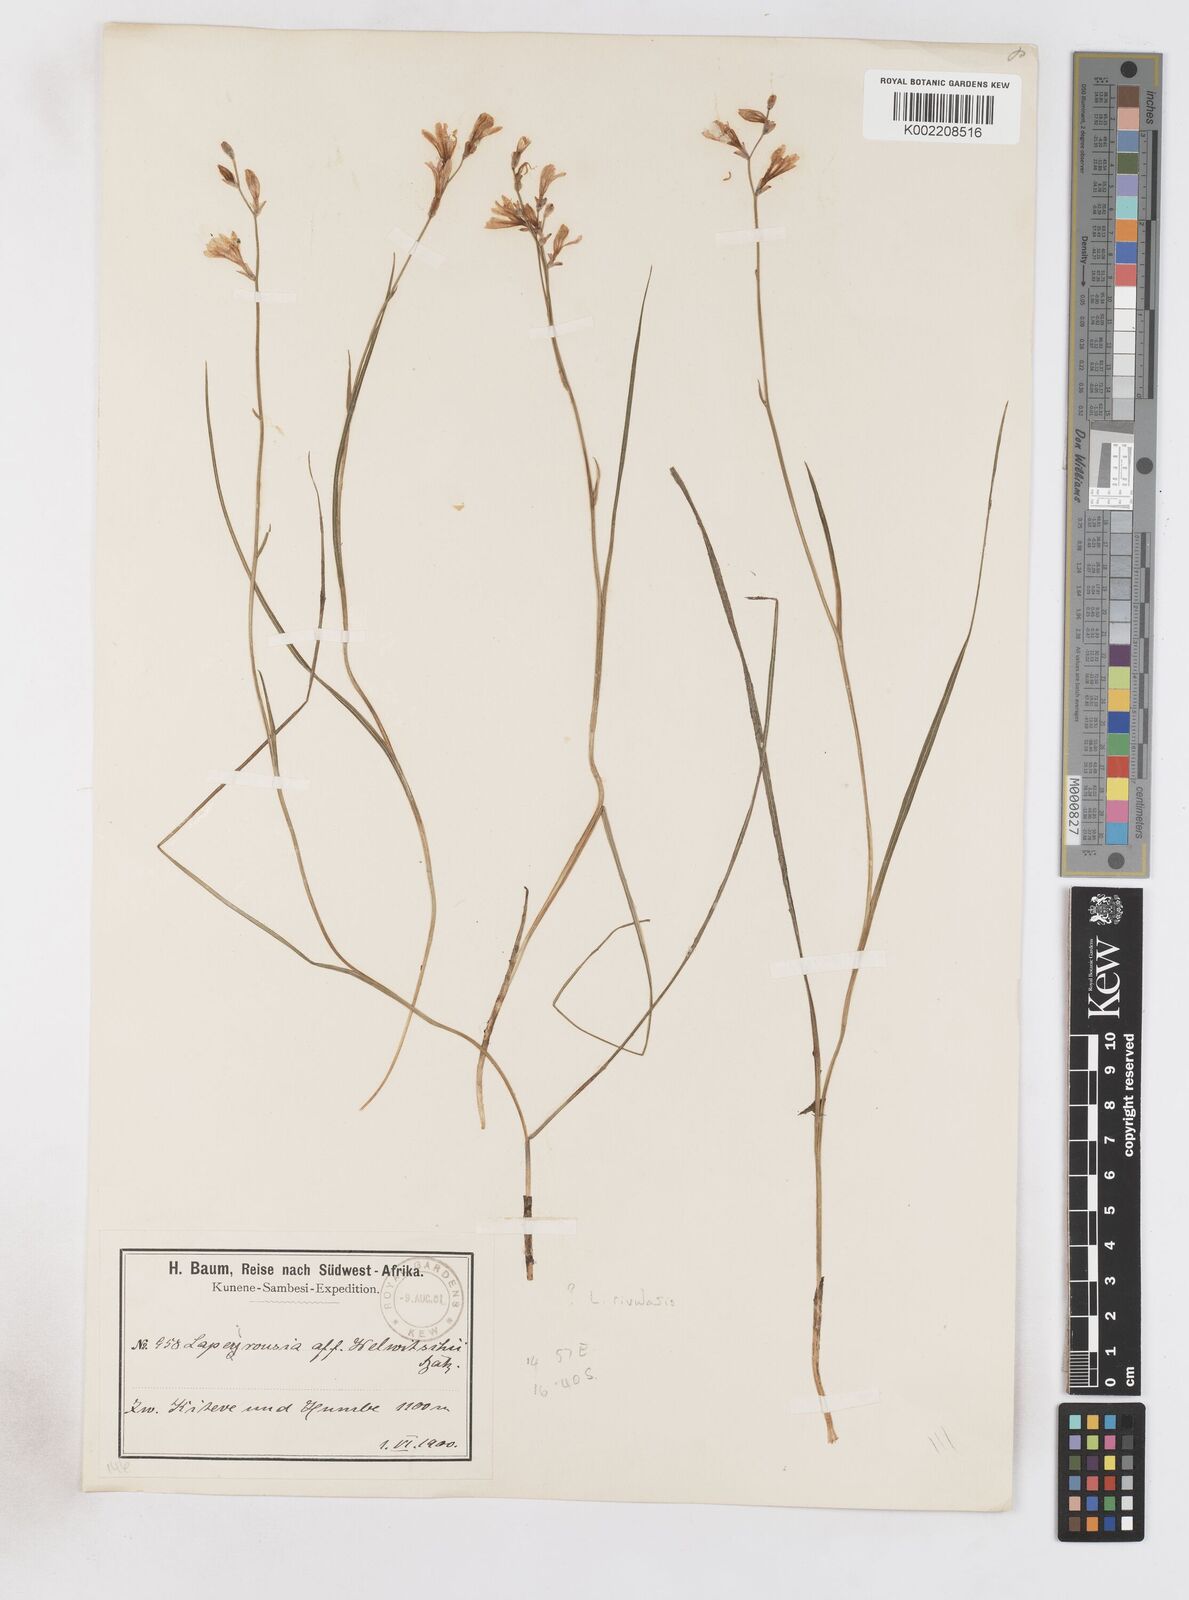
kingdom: Plantae
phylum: Tracheophyta
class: Liliopsida
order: Asparagales
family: Iridaceae
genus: Afrosolen
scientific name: Afrosolen rivularis
